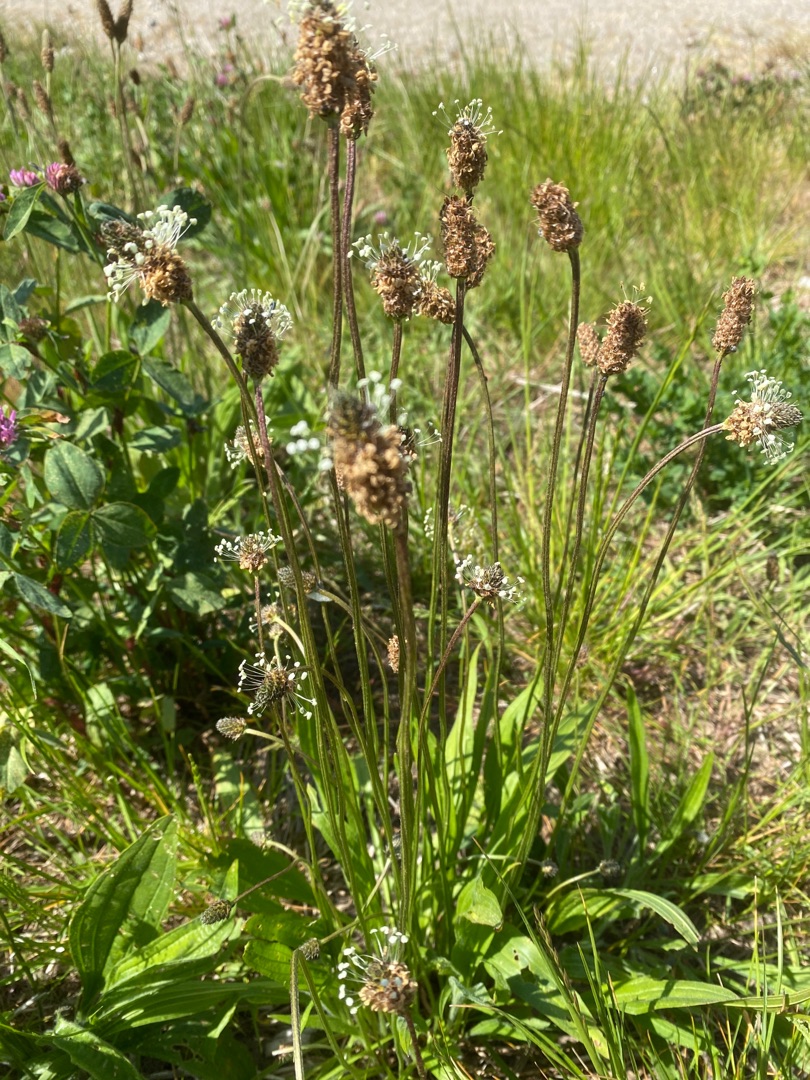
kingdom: Plantae
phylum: Tracheophyta
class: Magnoliopsida
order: Lamiales
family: Plantaginaceae
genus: Plantago
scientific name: Plantago lanceolata
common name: Lancet-vejbred
